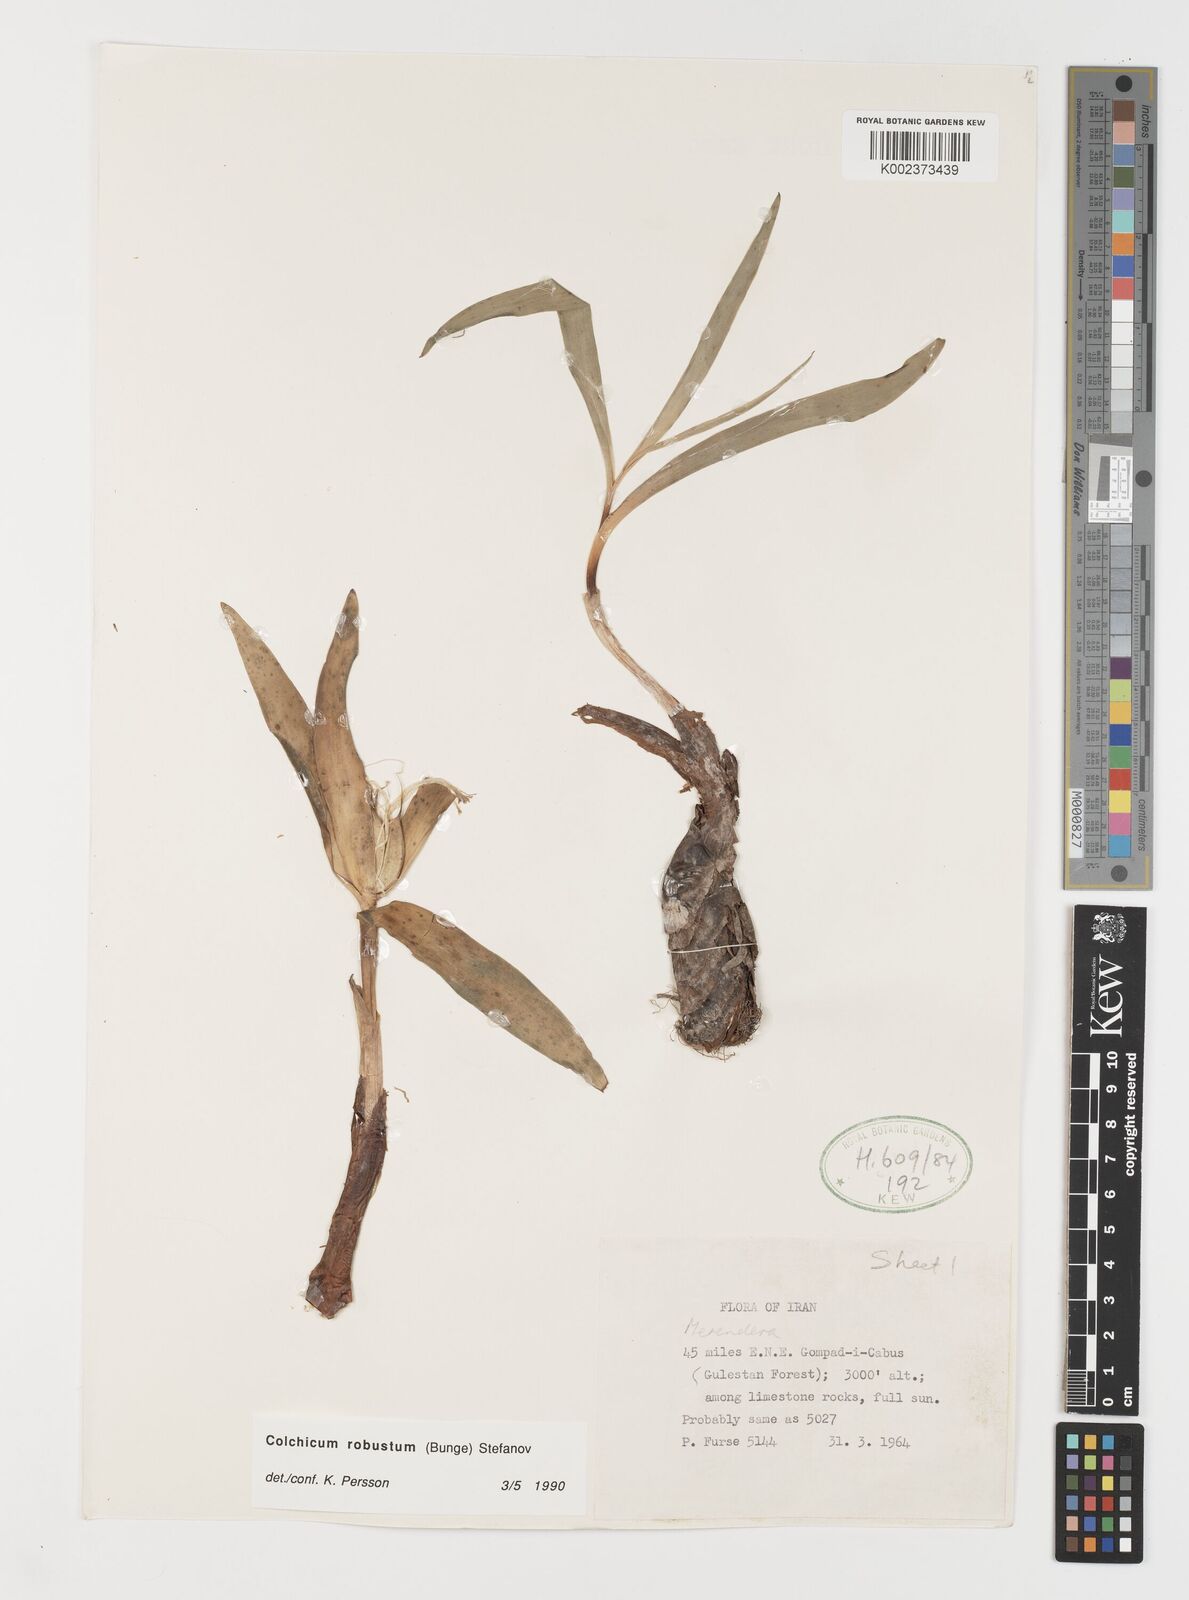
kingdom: Plantae
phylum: Tracheophyta
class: Liliopsida
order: Liliales
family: Colchicaceae
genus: Colchicum
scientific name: Colchicum robustum
